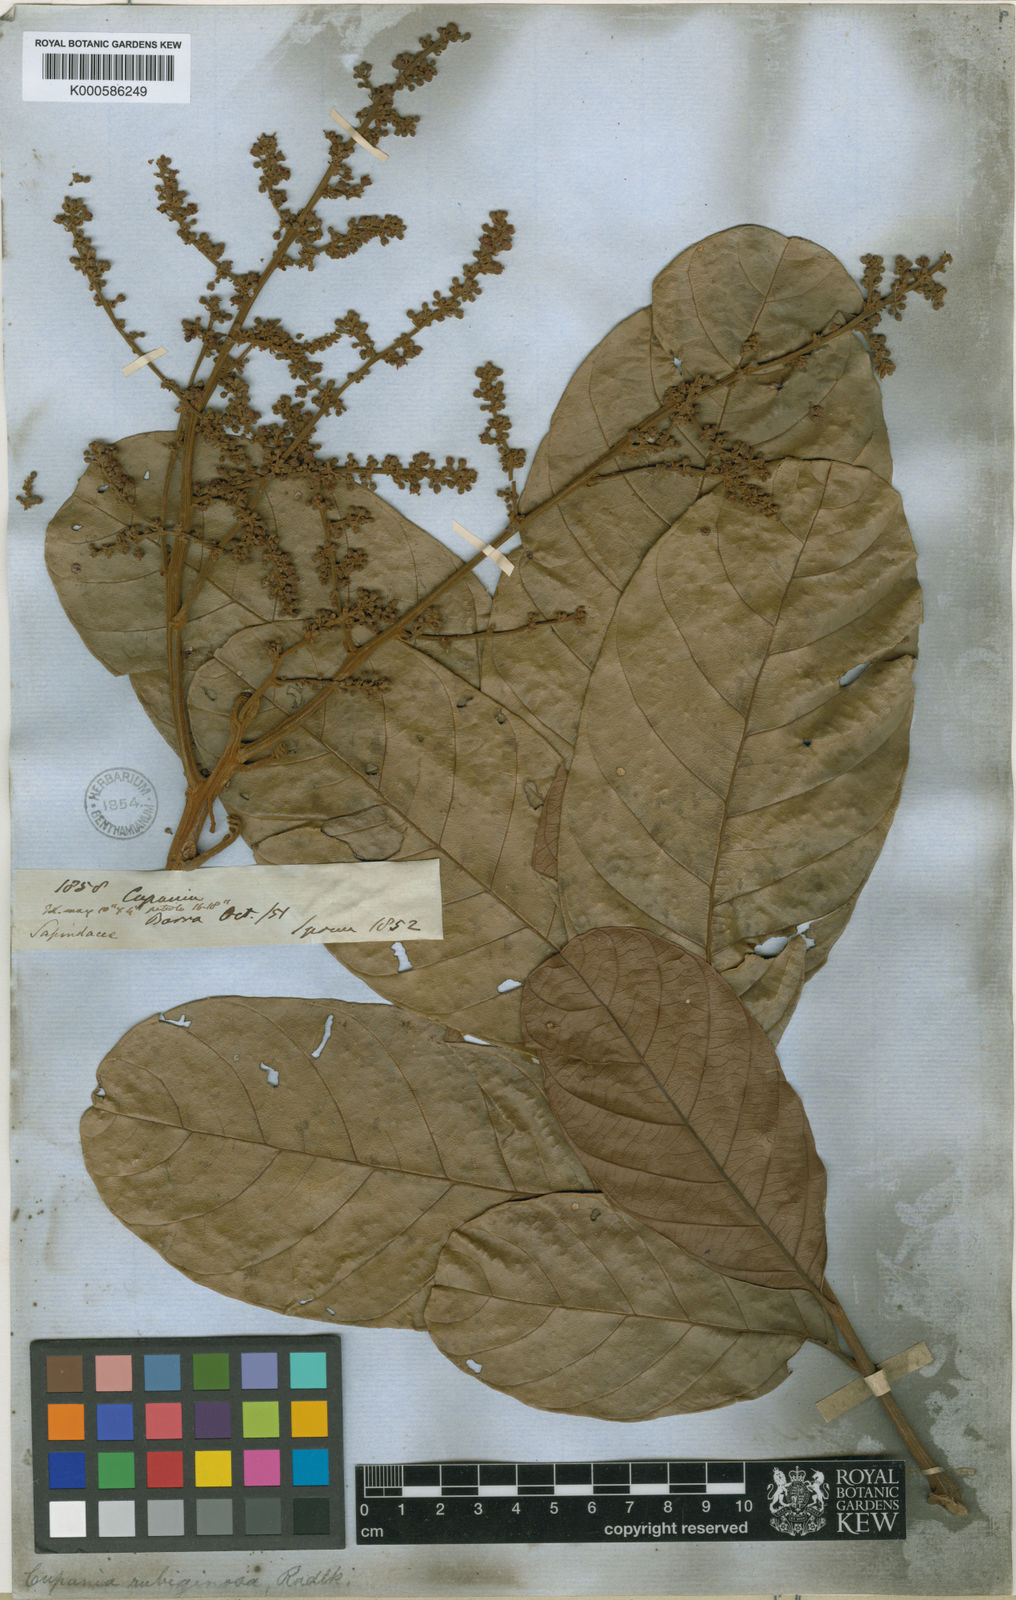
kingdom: Plantae
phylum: Tracheophyta
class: Magnoliopsida
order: Sapindales
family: Sapindaceae
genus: Cupania
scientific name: Cupania rubiginosa
